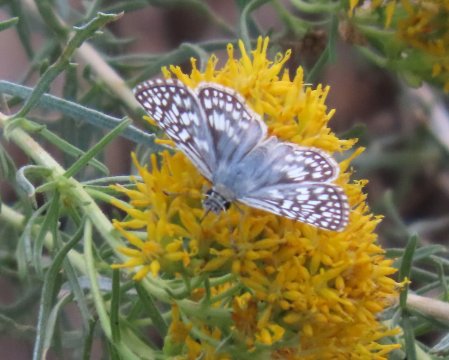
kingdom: Animalia
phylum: Arthropoda
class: Insecta
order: Lepidoptera
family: Hesperiidae
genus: Pyrgus
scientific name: Pyrgus communis
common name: Common Checkered-Skipper
